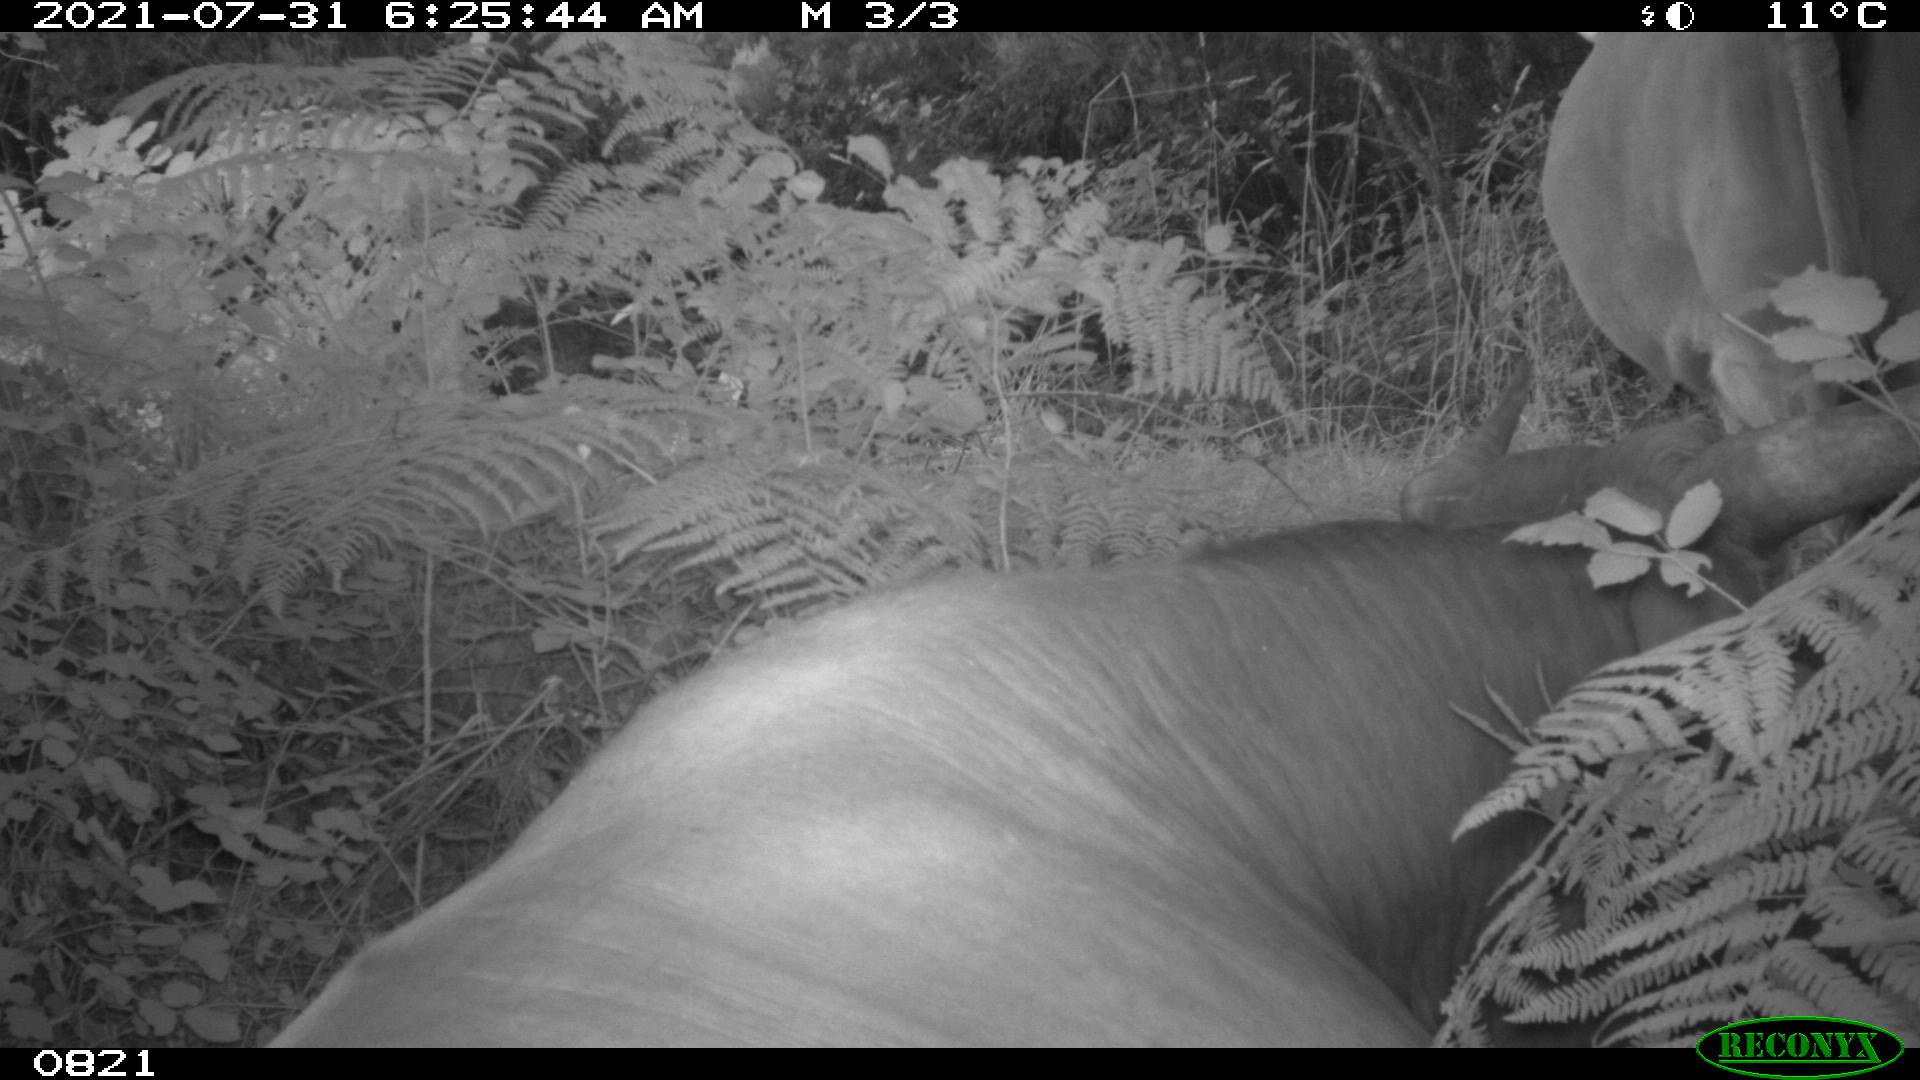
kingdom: Animalia
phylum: Chordata
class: Mammalia
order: Artiodactyla
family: Bovidae
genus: Bos
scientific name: Bos taurus
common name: Domesticated cattle
